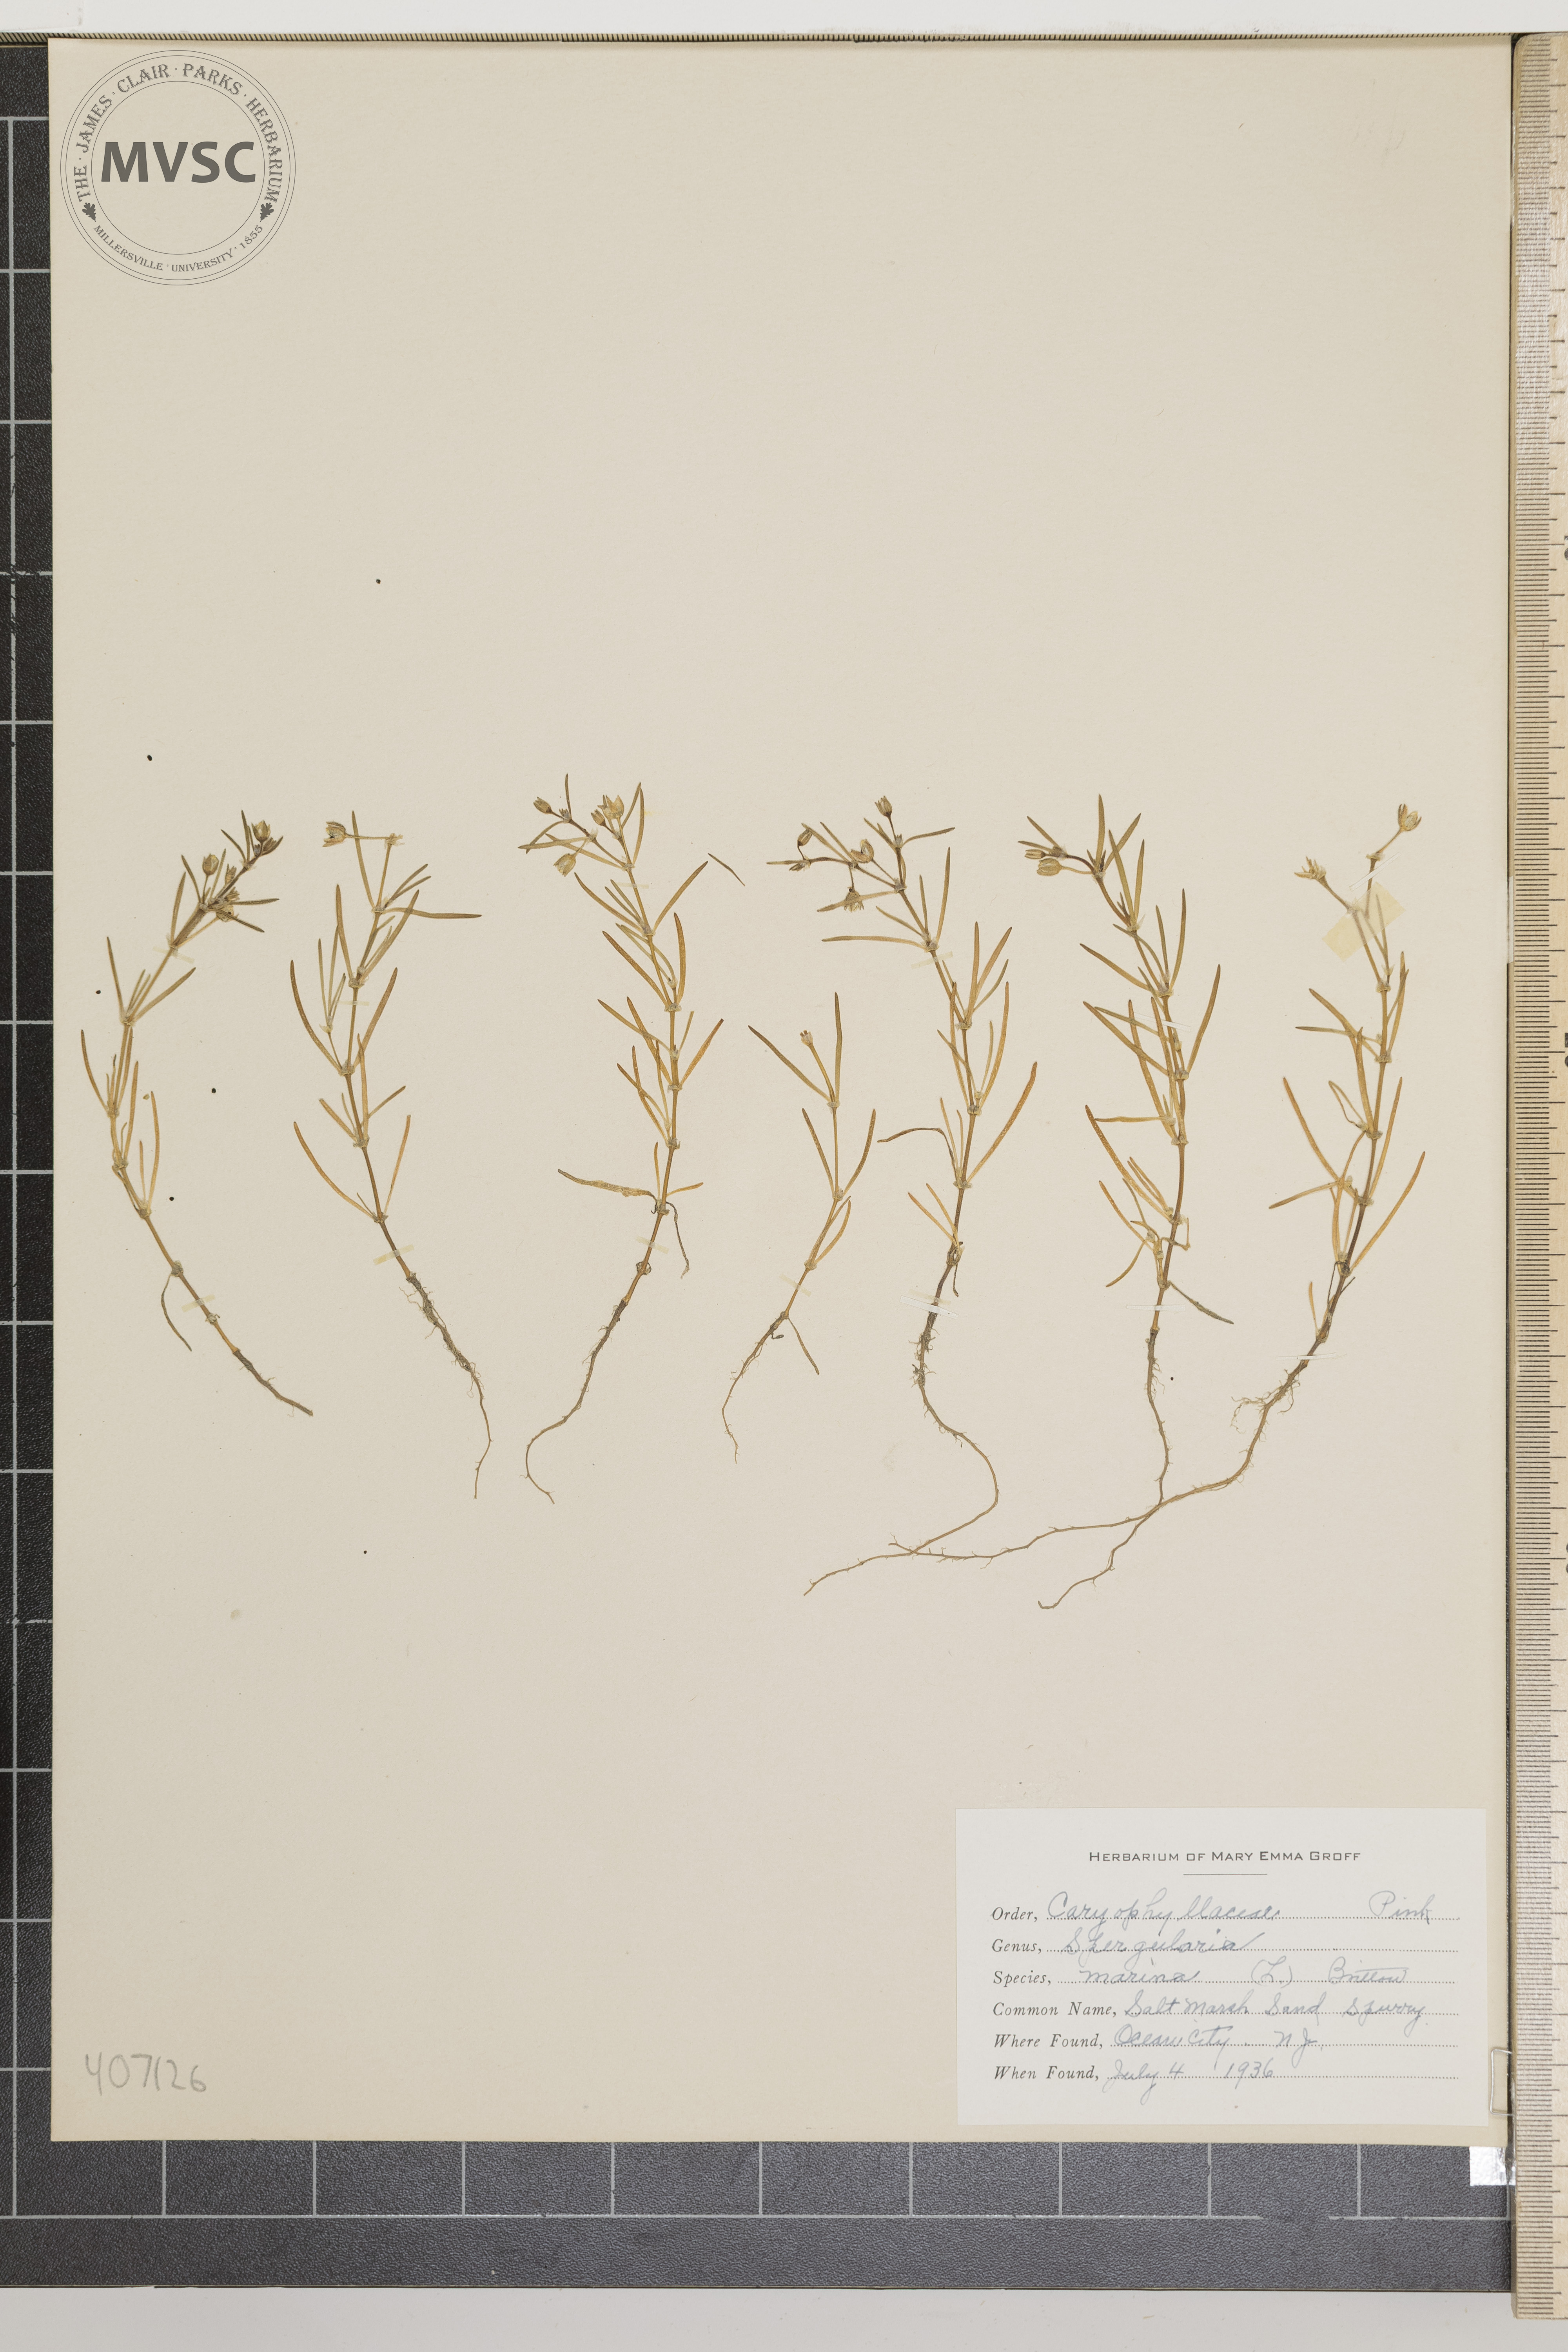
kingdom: Plantae
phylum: Tracheophyta
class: Magnoliopsida
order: Caryophyllales
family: Caryophyllaceae
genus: Spergularia
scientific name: Spergularia marina
